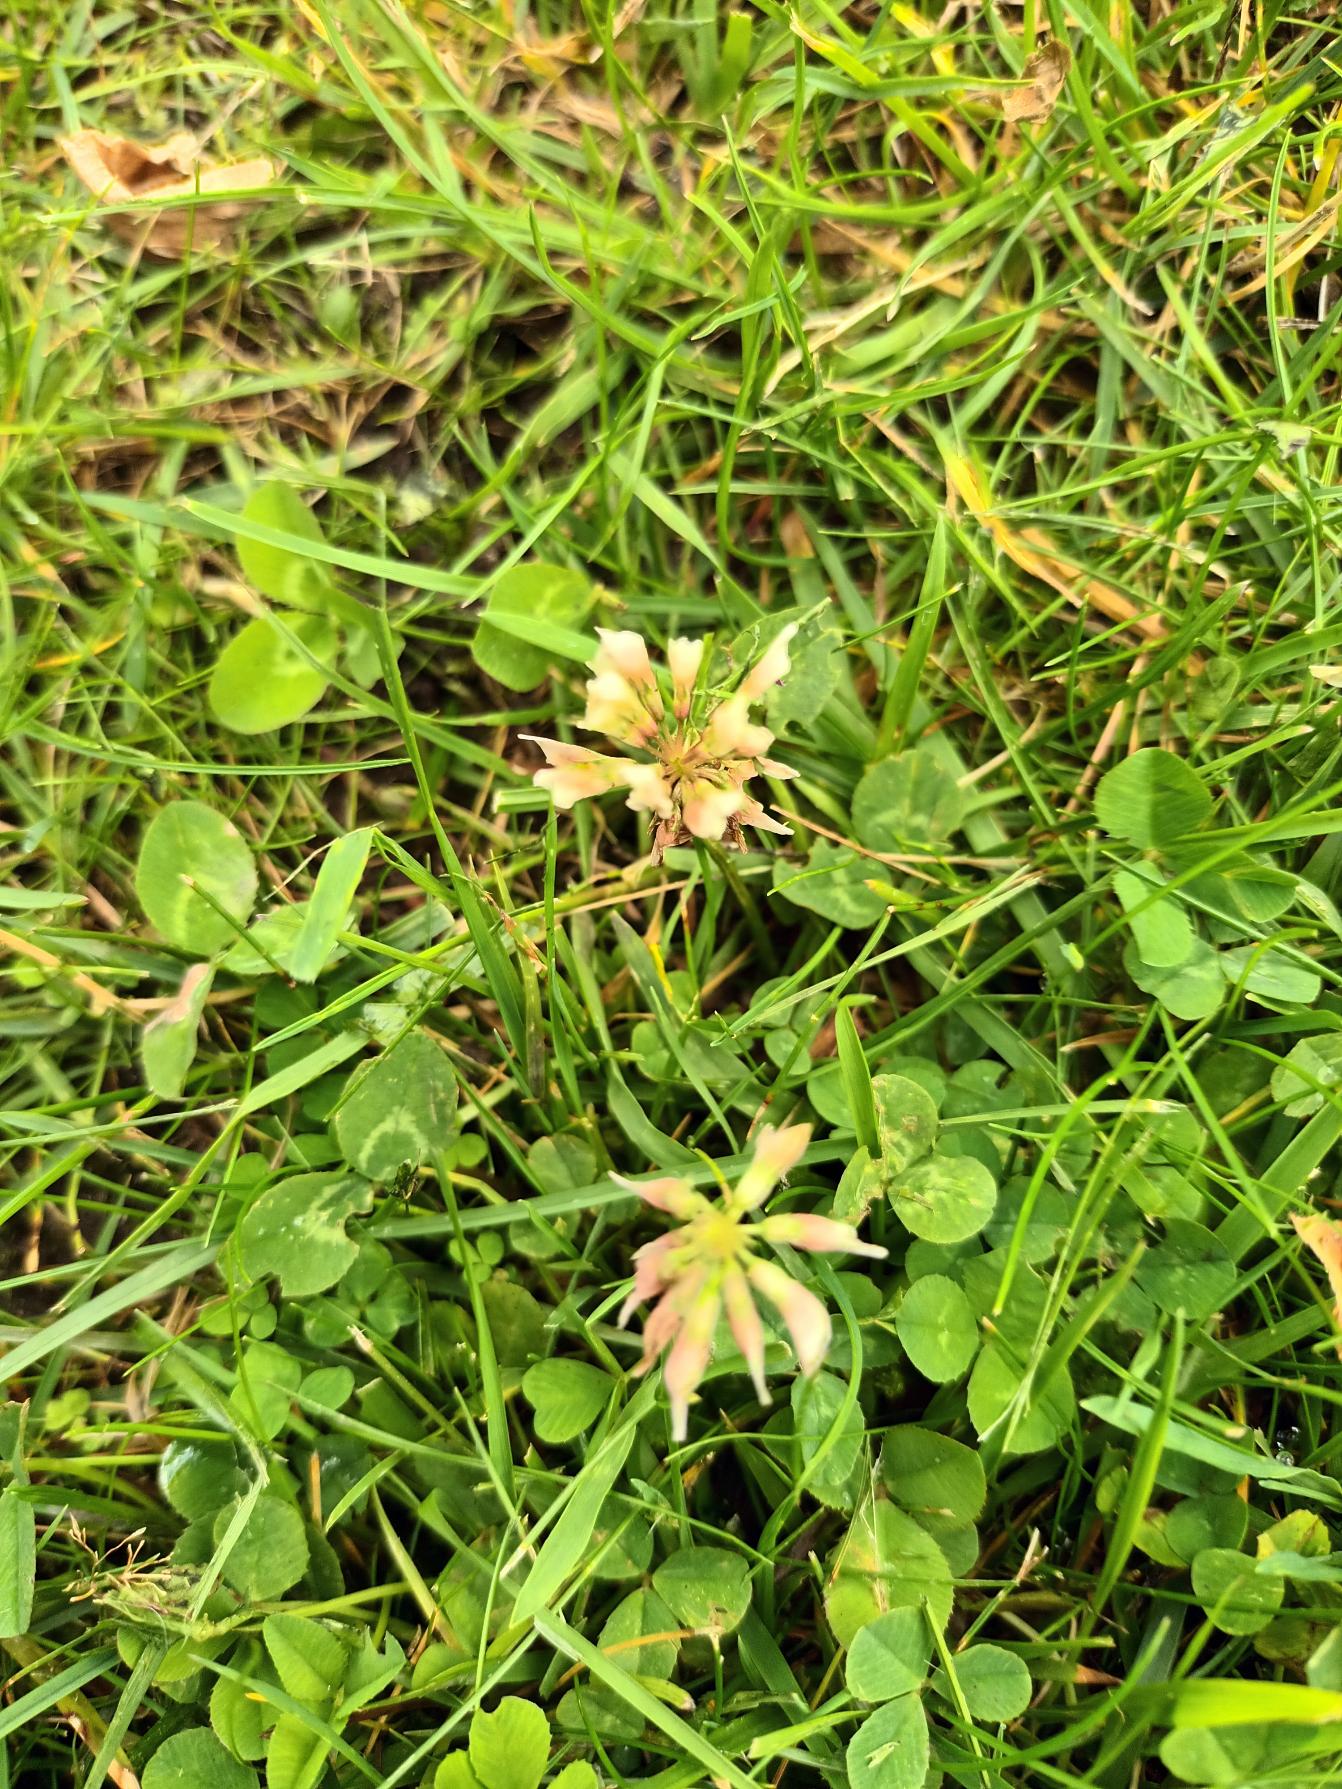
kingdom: Plantae
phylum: Tracheophyta
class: Magnoliopsida
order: Fabales
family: Fabaceae
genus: Trifolium
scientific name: Trifolium repens
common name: Hvid-kløver
